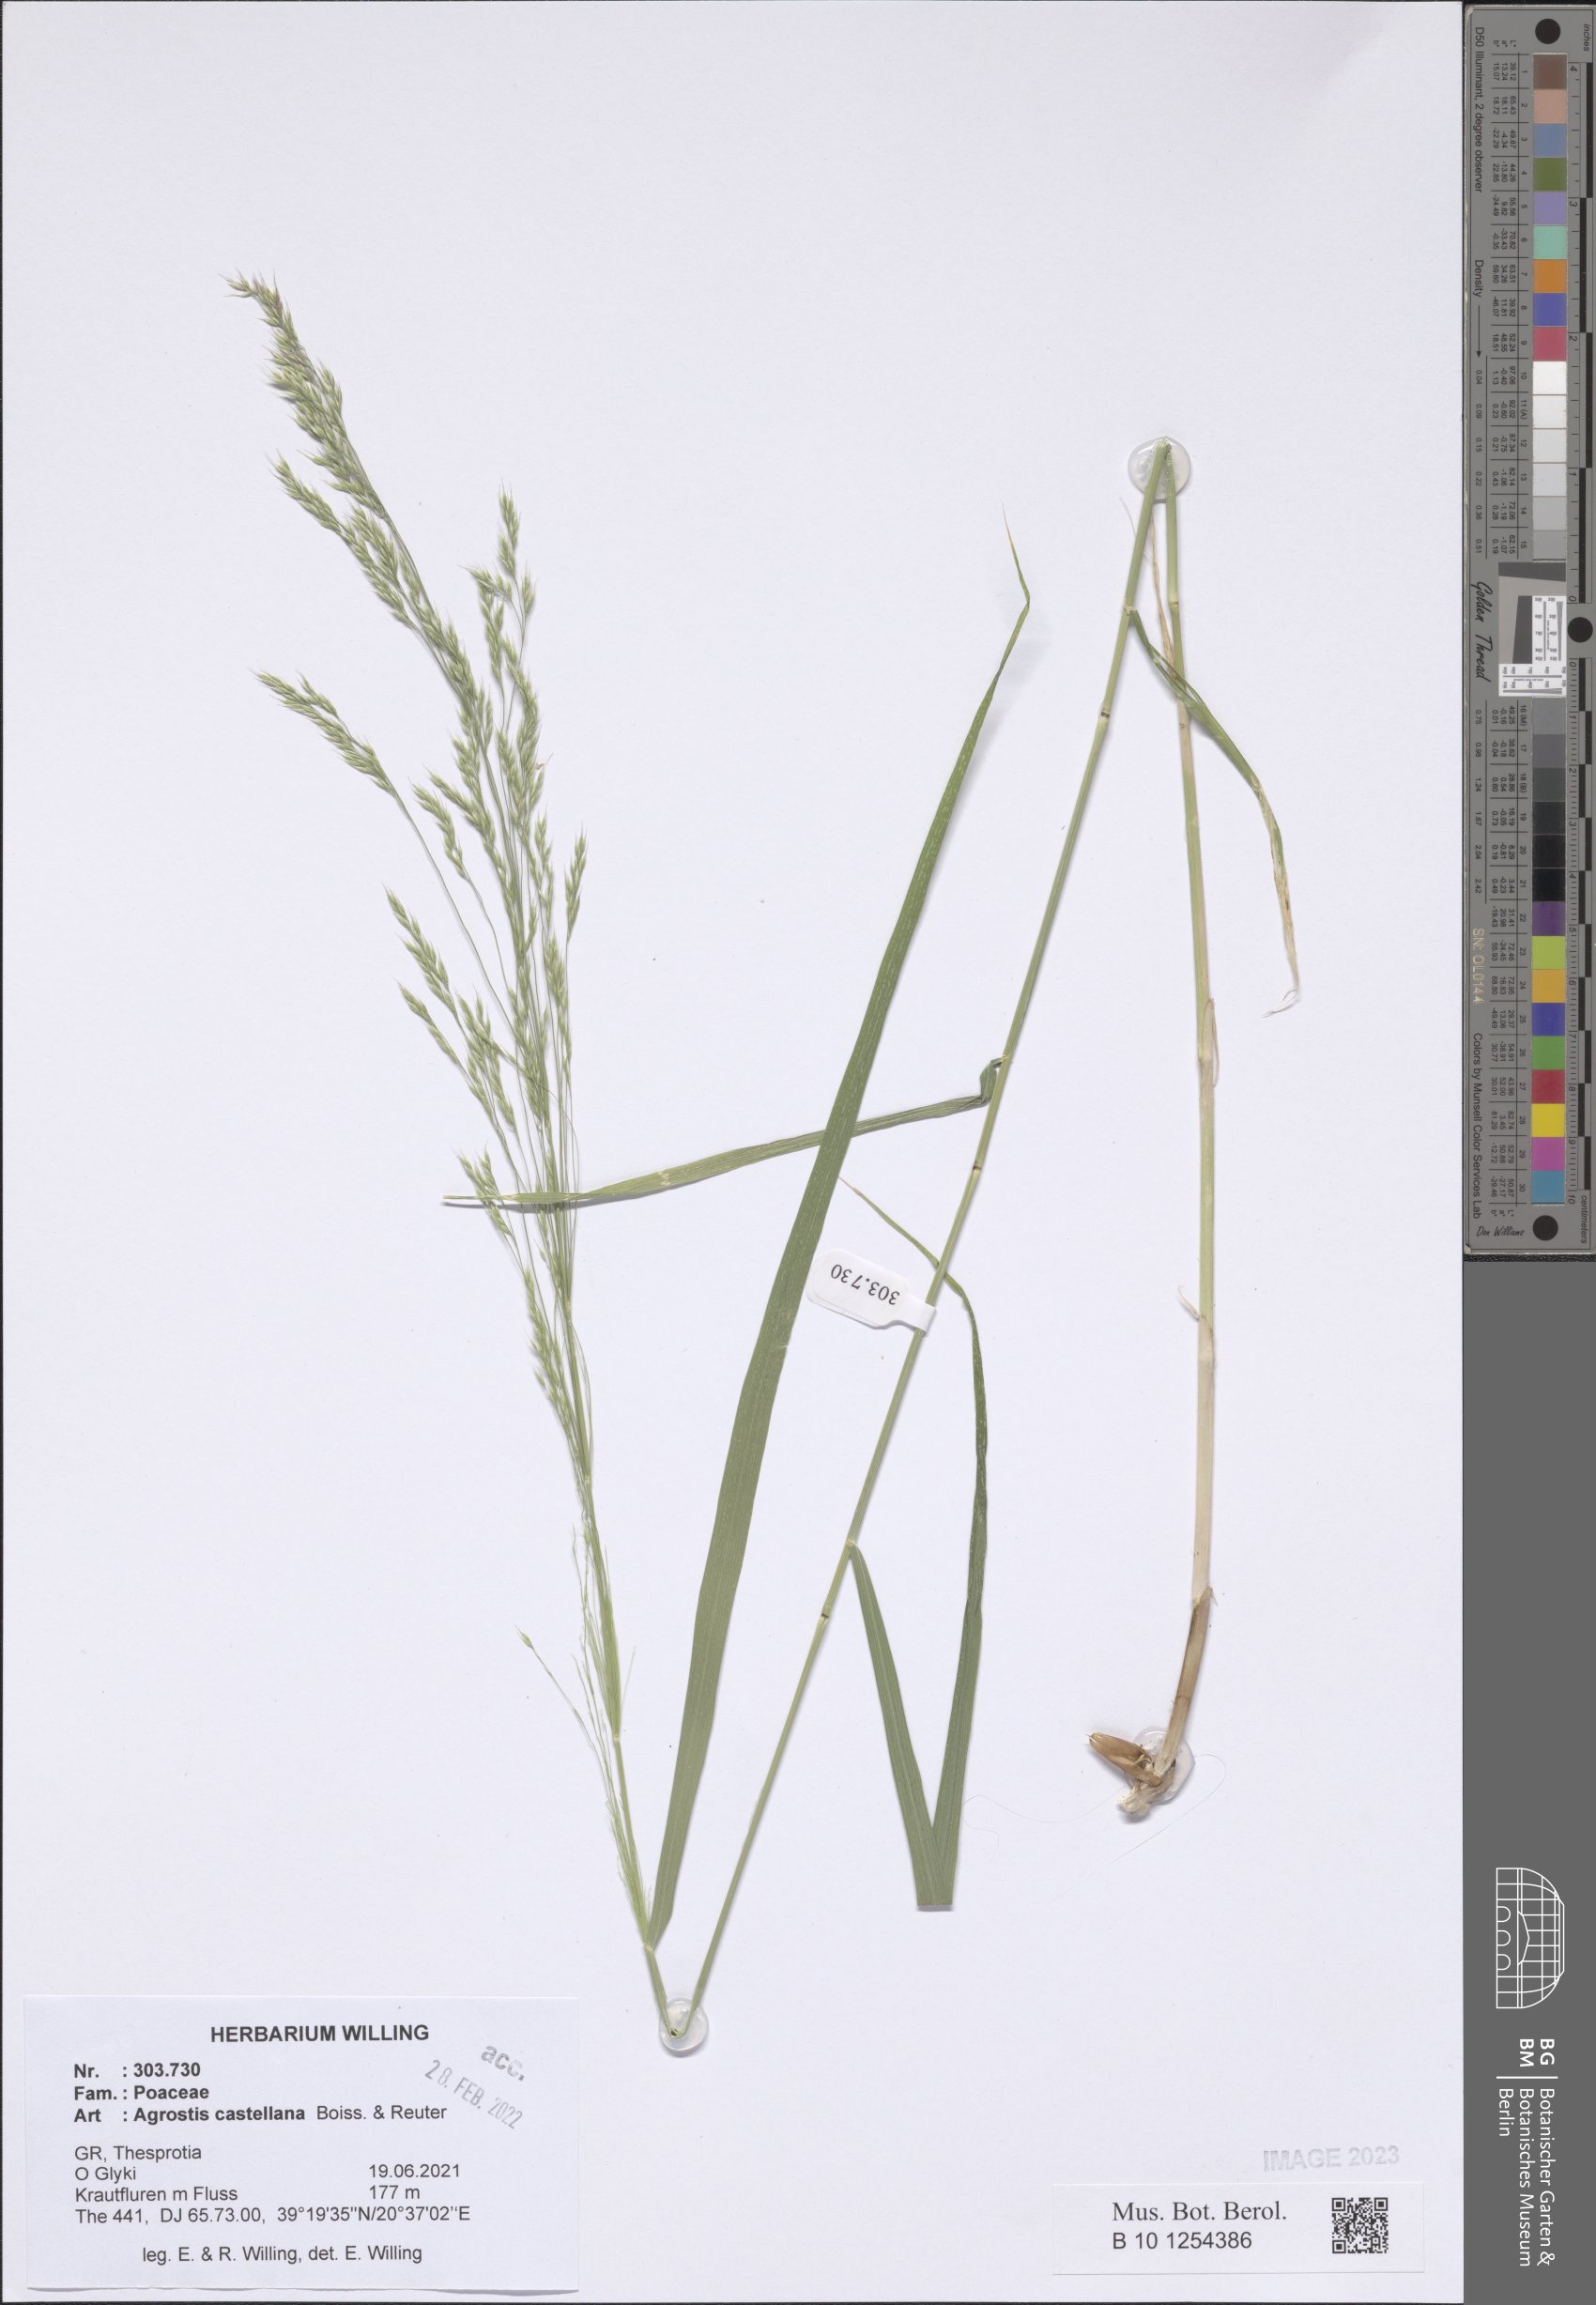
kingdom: Plantae
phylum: Tracheophyta
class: Liliopsida
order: Poales
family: Poaceae
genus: Agrostis
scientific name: Agrostis castellana
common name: Highland bent
